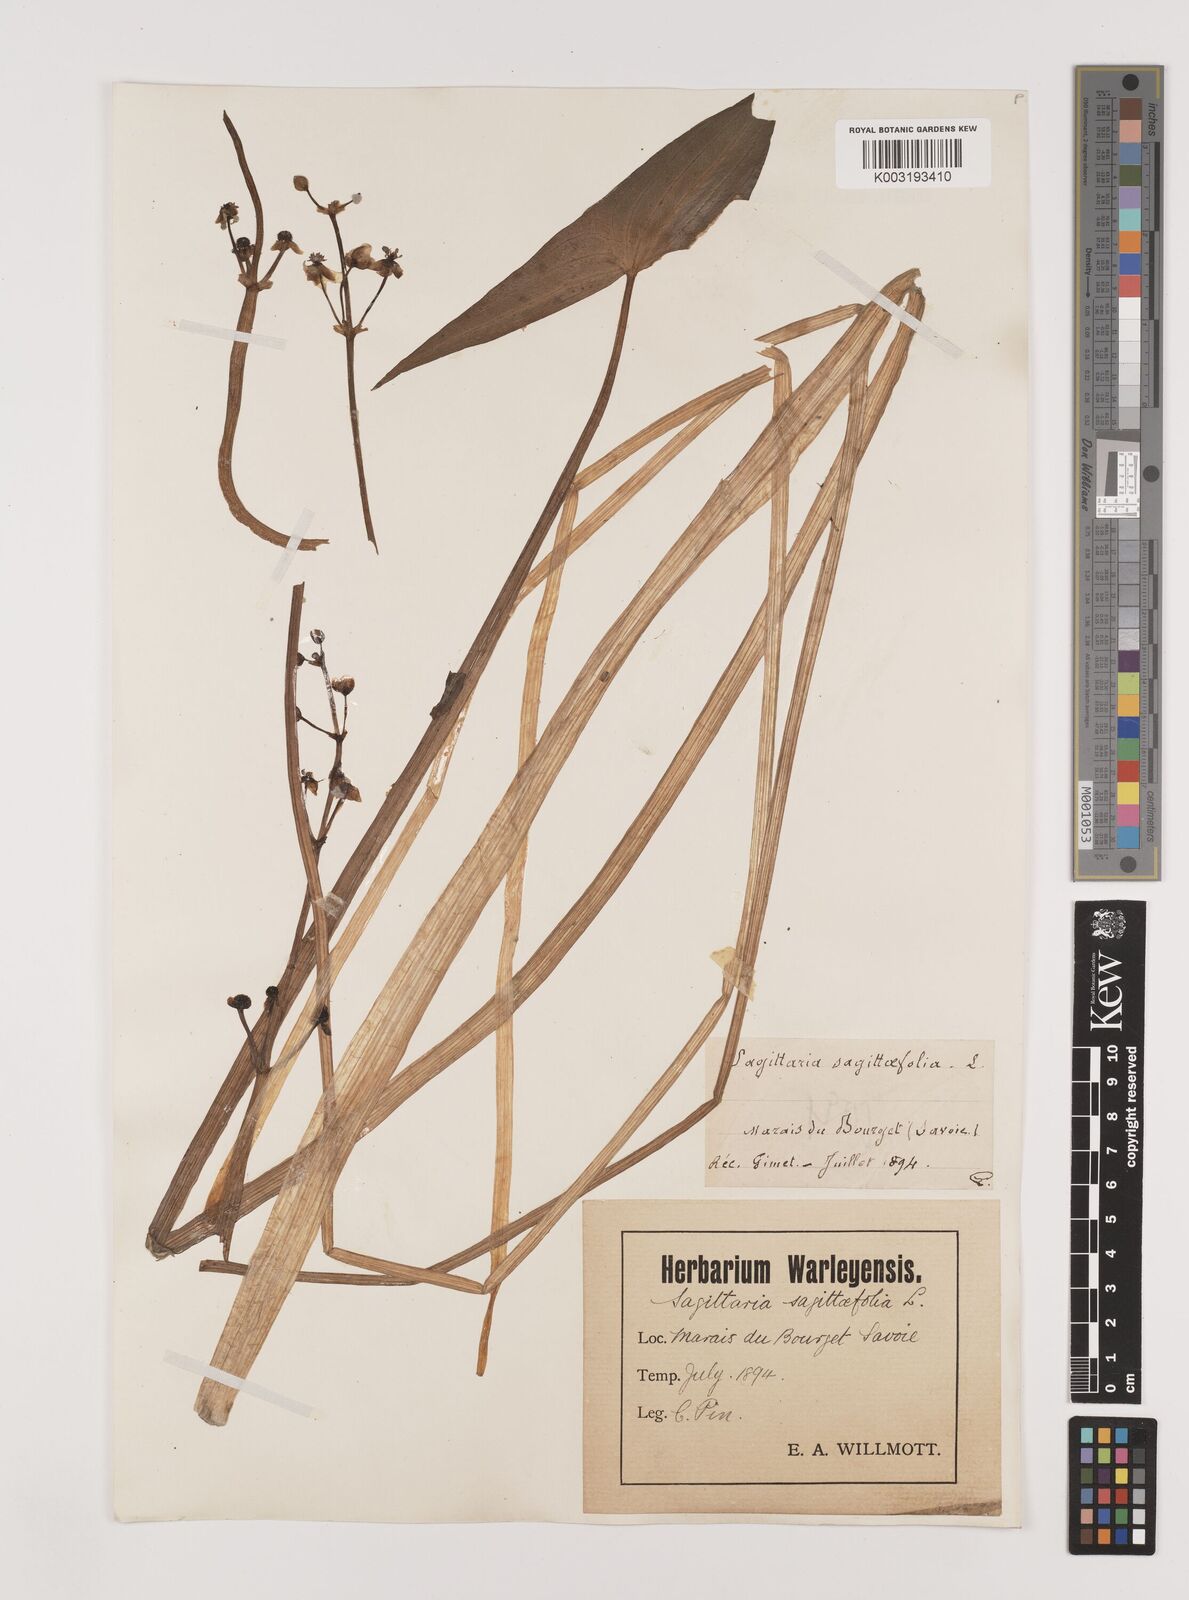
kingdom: Plantae
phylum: Tracheophyta
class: Liliopsida
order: Alismatales
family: Alismataceae
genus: Sagittaria
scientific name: Sagittaria sagittifolia
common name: Arrowhead
